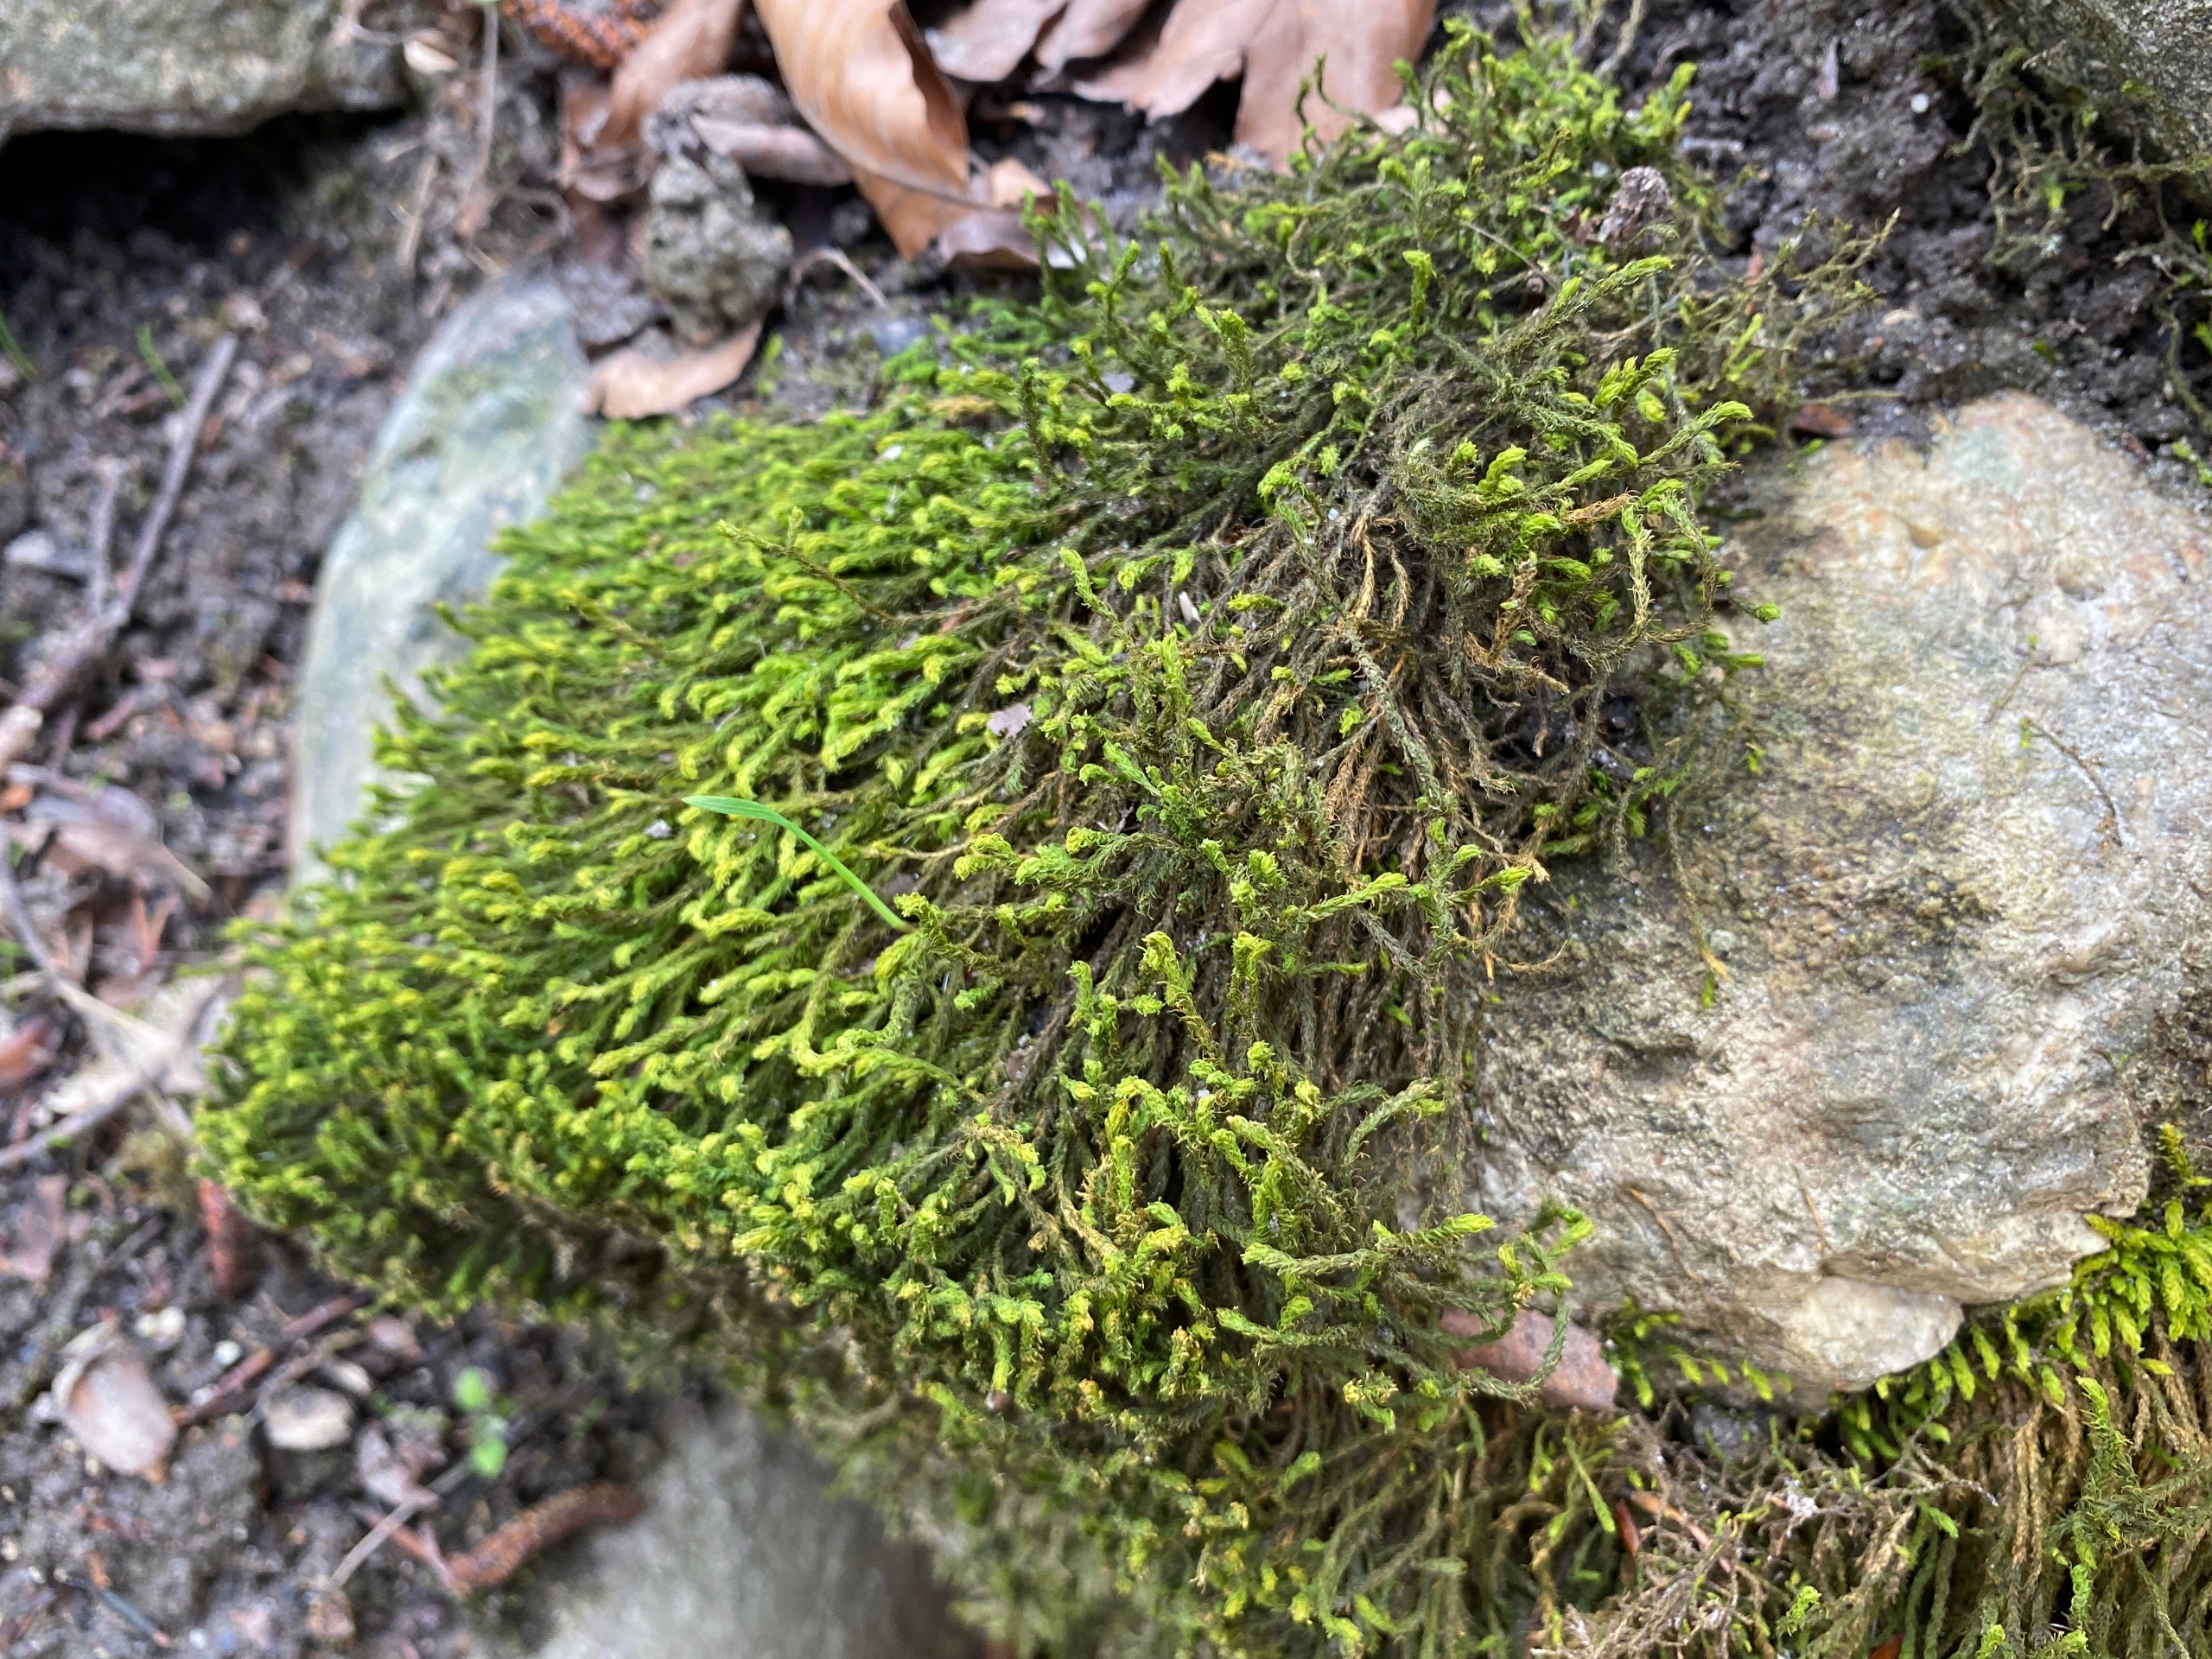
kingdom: Plantae
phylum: Bryophyta
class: Bryopsida
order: Hypnales
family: Anomodontaceae
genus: Anomodon
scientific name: Anomodon viticulosus
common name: Robust matblad
